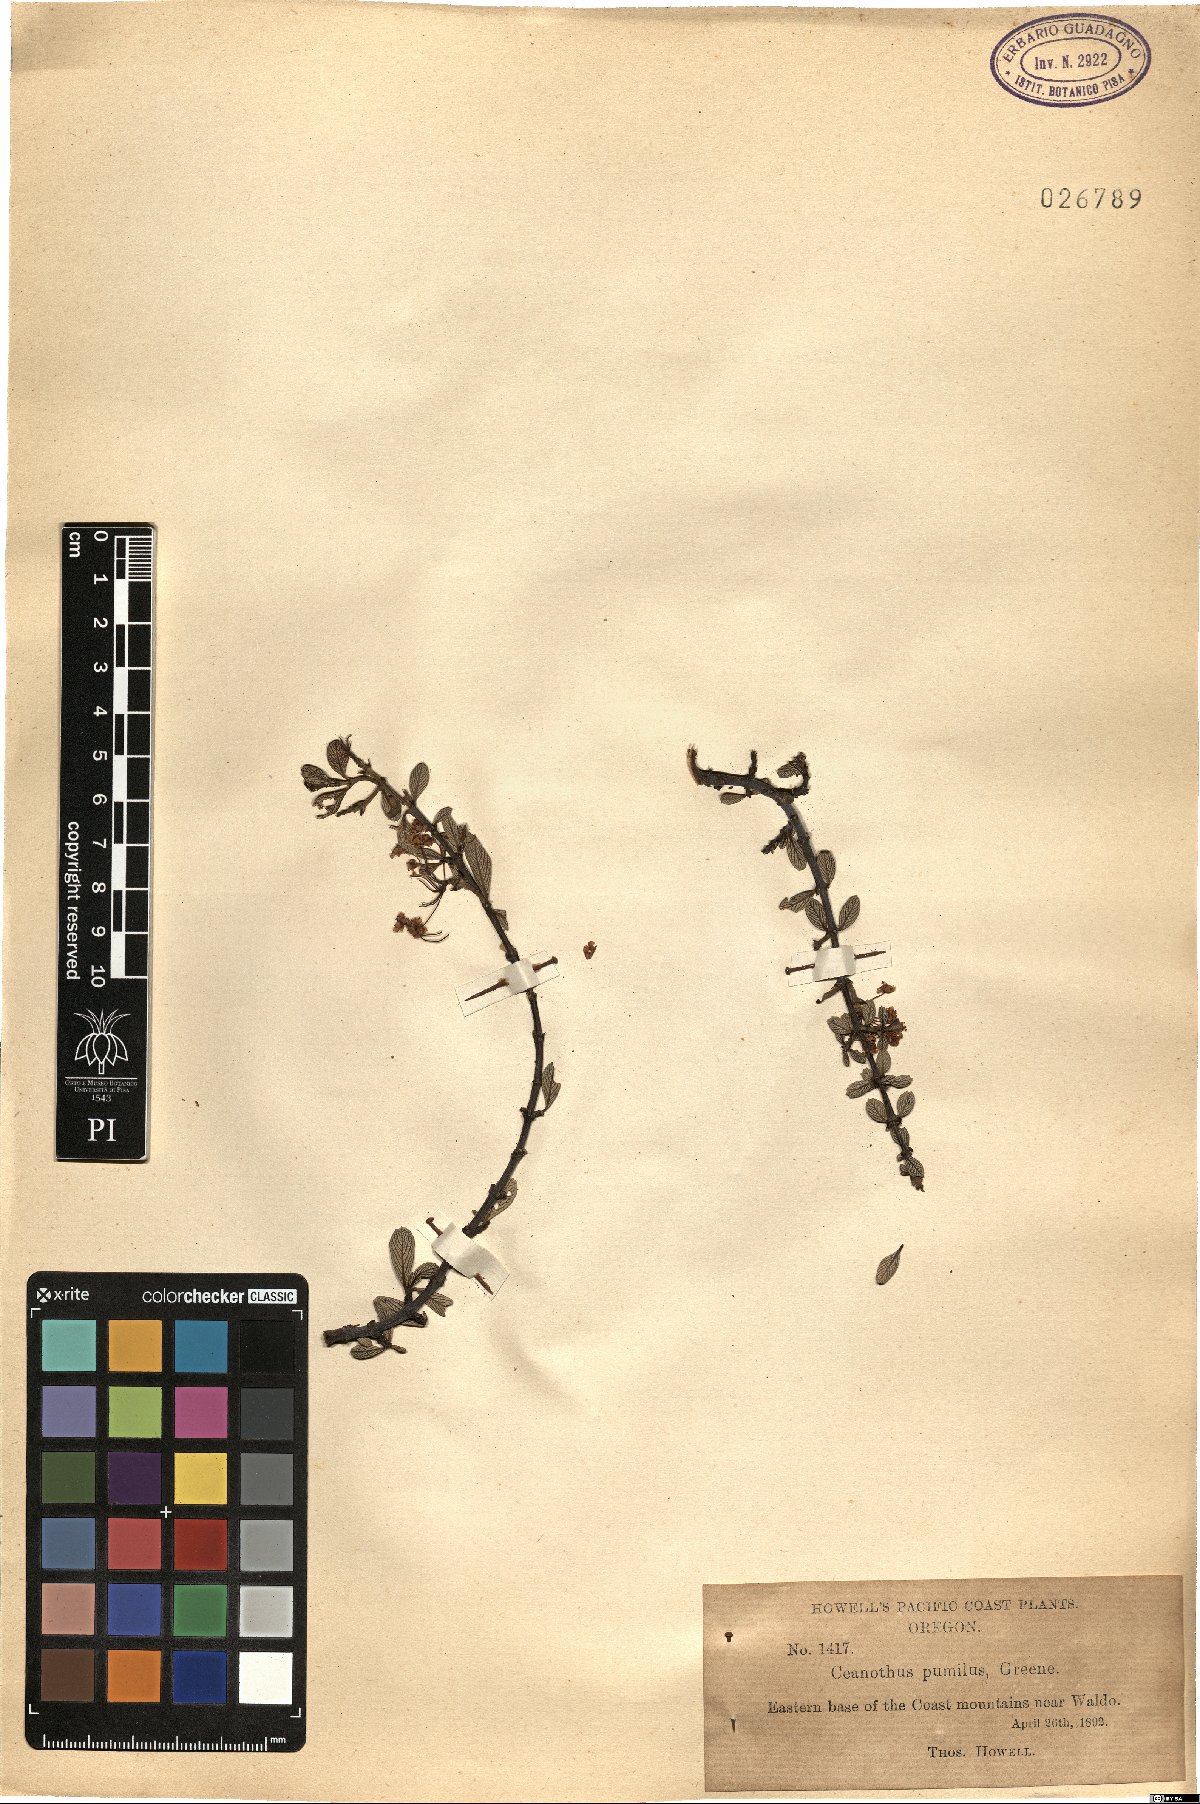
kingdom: Plantae
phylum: Tracheophyta
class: Magnoliopsida
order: Rosales
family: Rhamnaceae
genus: Ceanothus
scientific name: Ceanothus pumilus
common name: Siskiyou-mat
